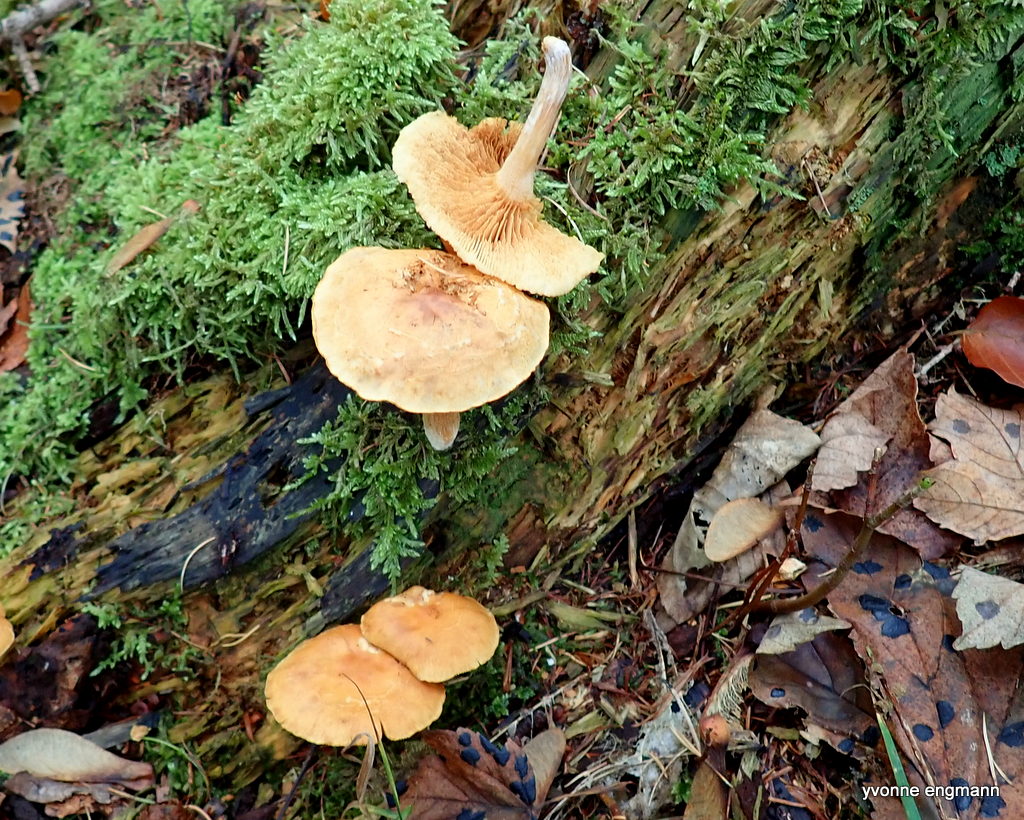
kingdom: Fungi
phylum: Basidiomycota
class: Agaricomycetes
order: Agaricales
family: Hymenogastraceae
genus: Gymnopilus
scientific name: Gymnopilus penetrans
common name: plettet flammehat
